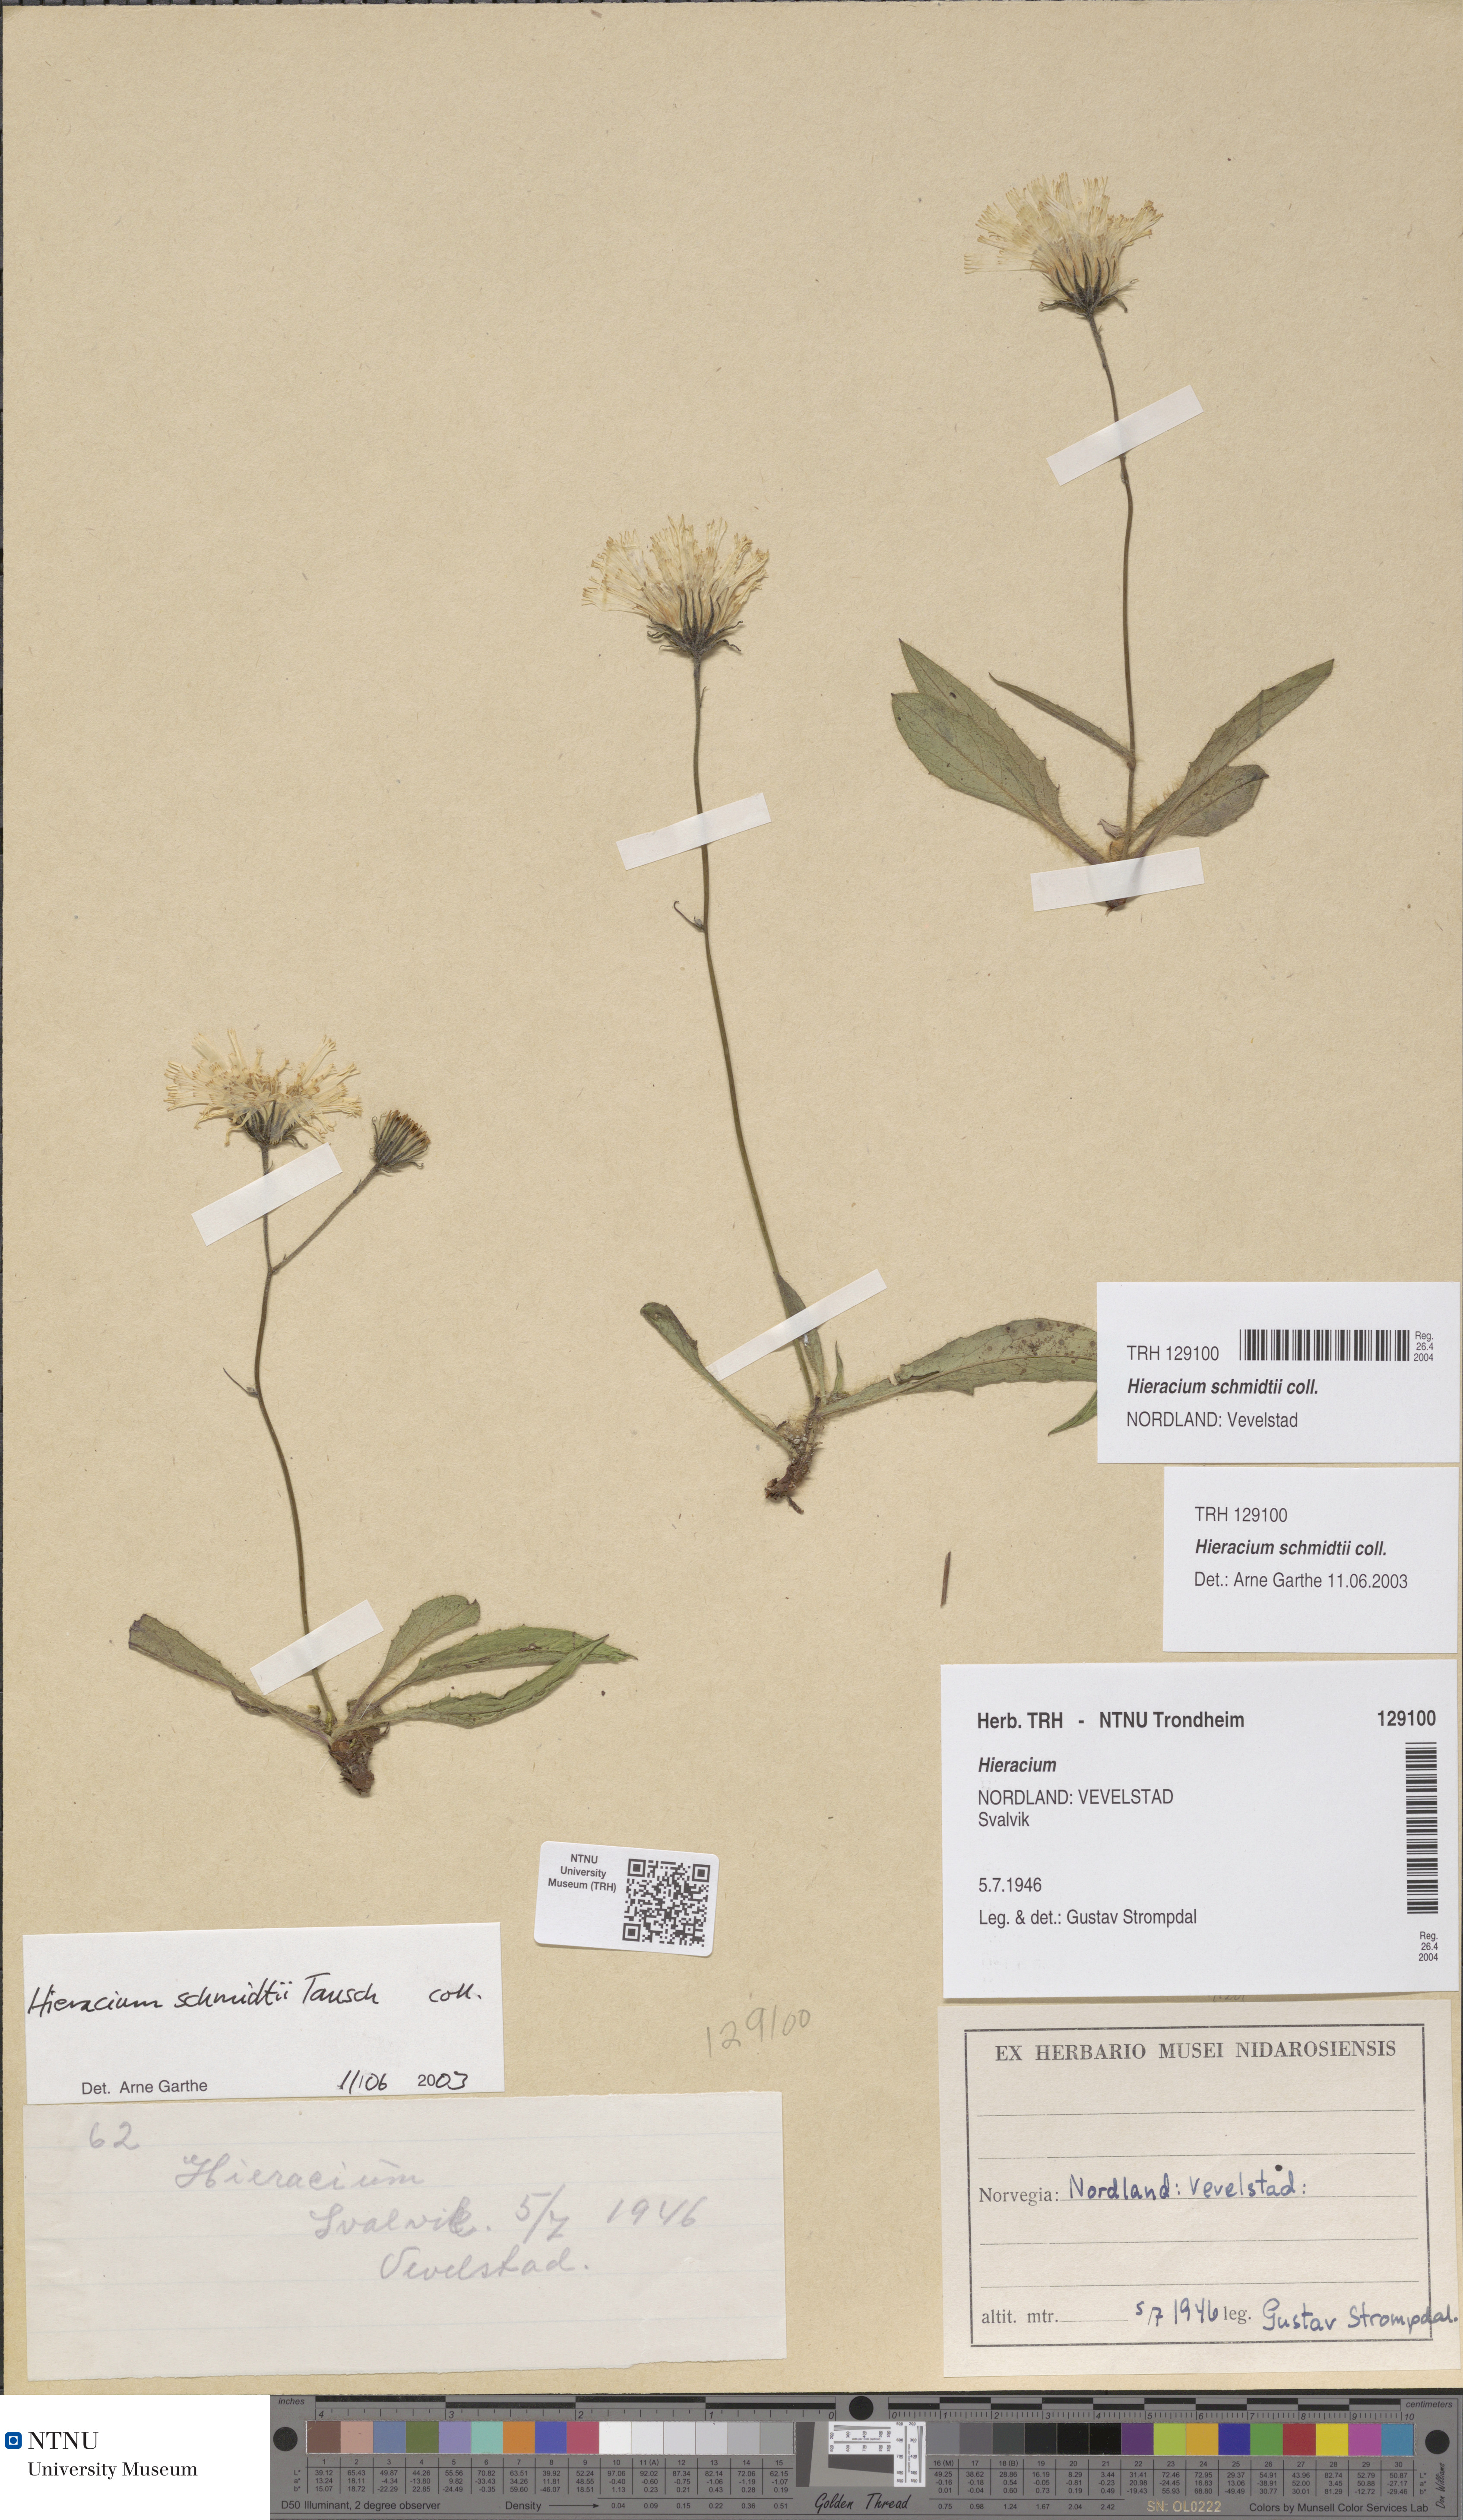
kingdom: Plantae
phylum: Tracheophyta
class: Magnoliopsida
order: Asterales
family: Asteraceae
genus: Hieracium
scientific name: Hieracium schmidtii
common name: Schmidt's hawkweed
